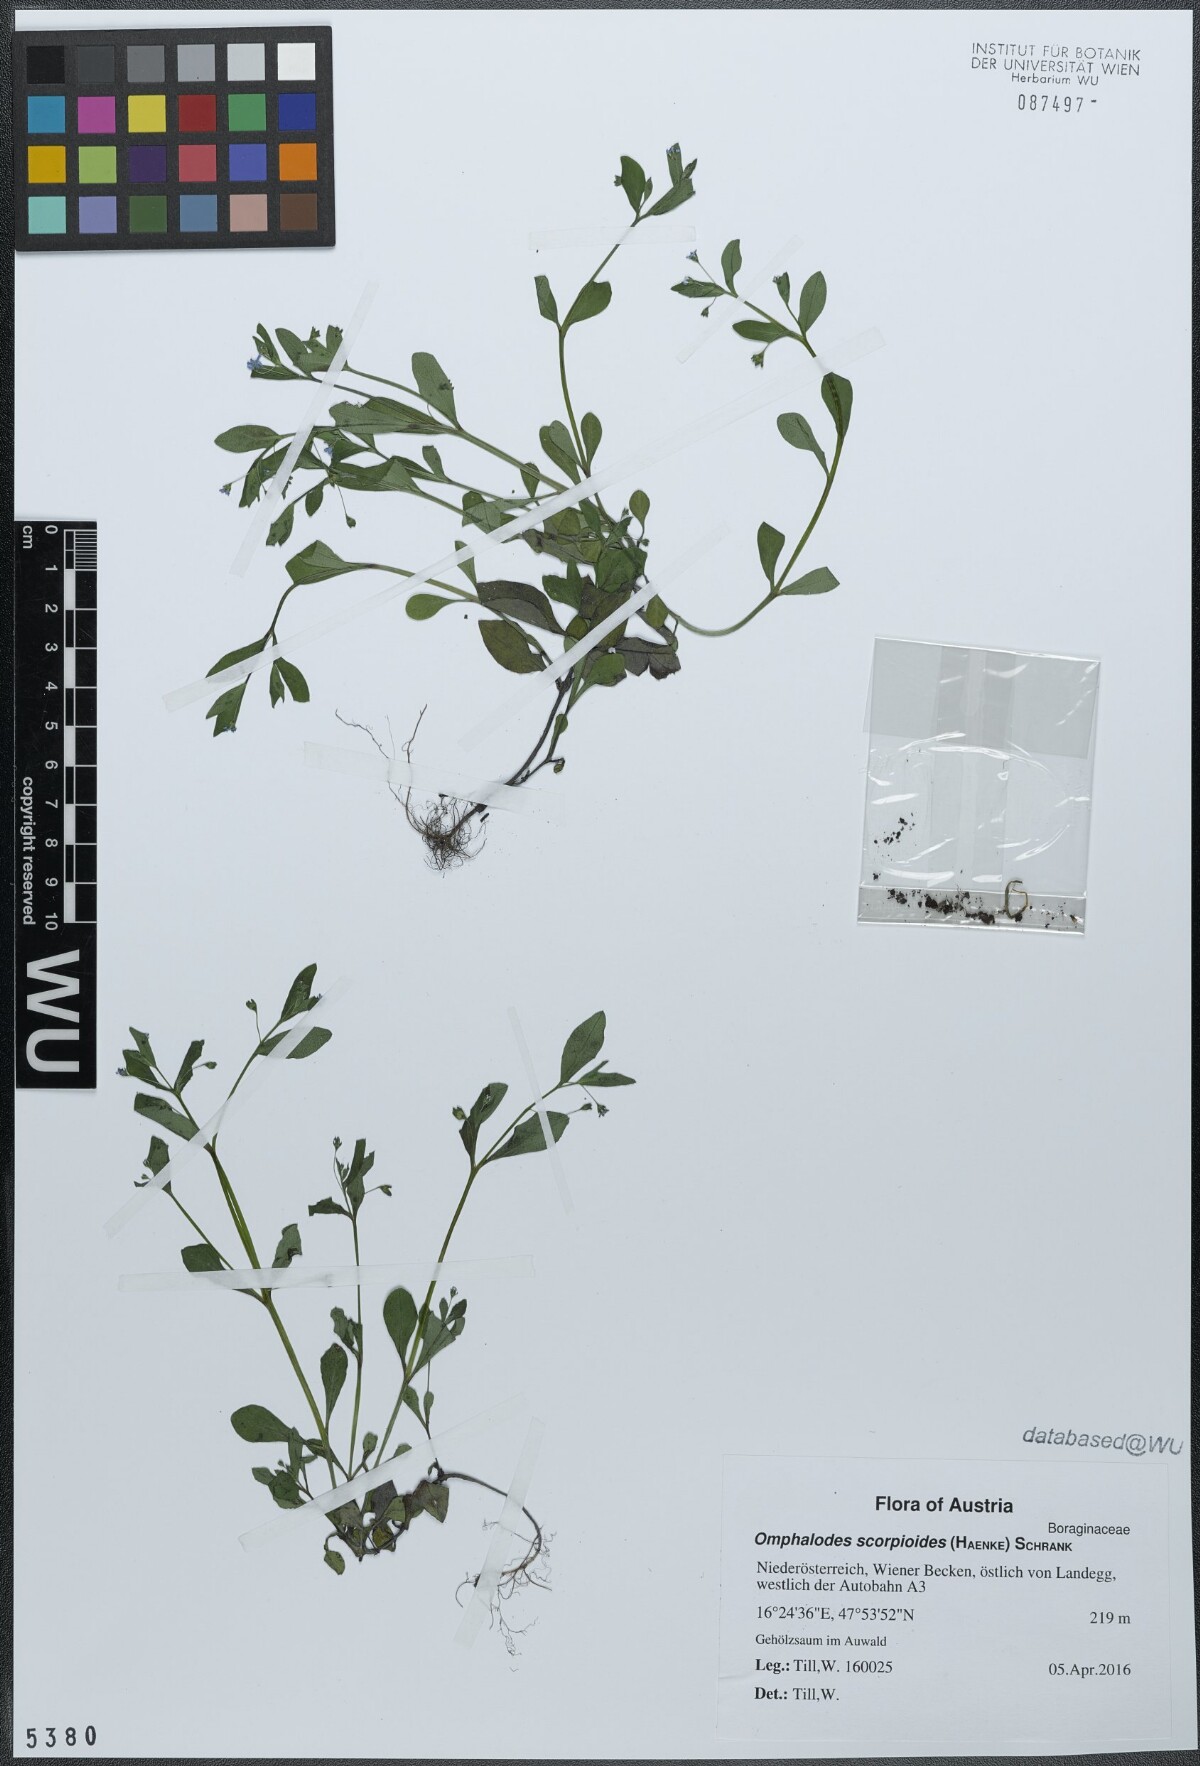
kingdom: Plantae
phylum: Tracheophyta
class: Magnoliopsida
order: Boraginales
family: Boraginaceae
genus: Memoremea
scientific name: Memoremea scorpioides
